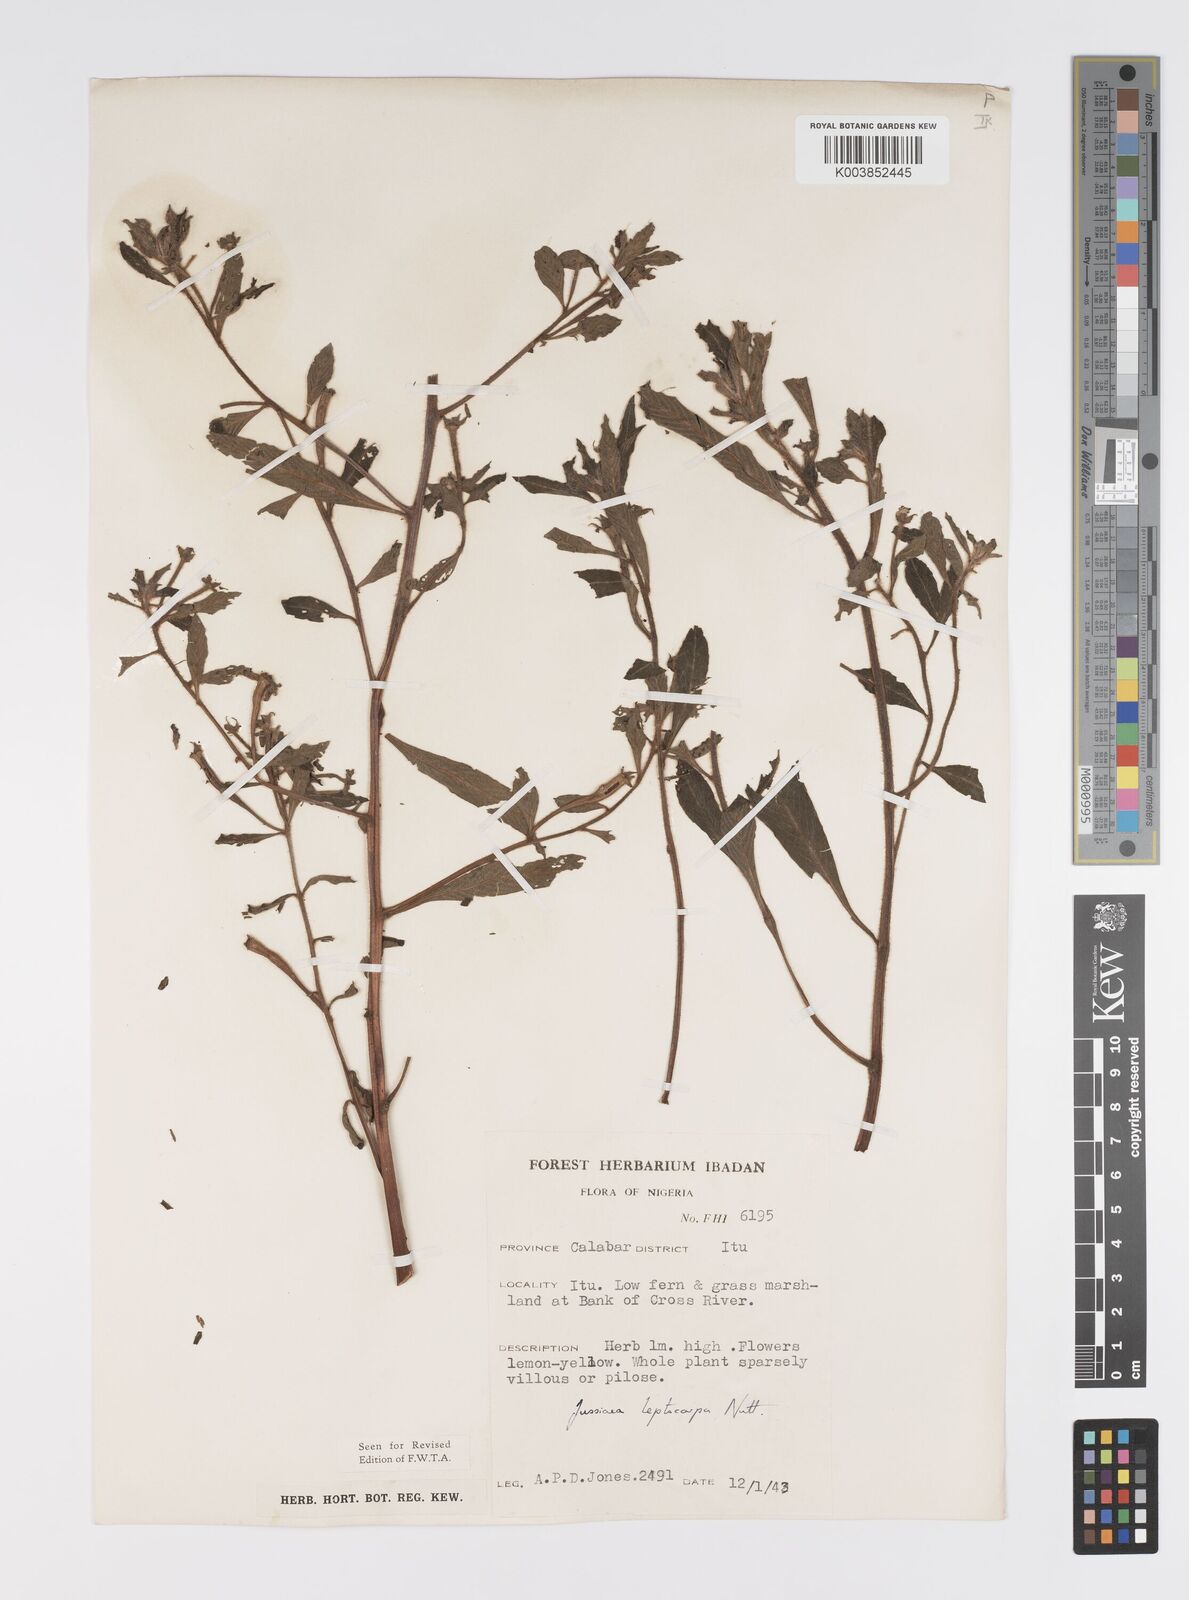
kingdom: Plantae
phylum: Tracheophyta
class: Magnoliopsida
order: Myrtales
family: Onagraceae
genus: Ludwigia
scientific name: Ludwigia leptocarpa
